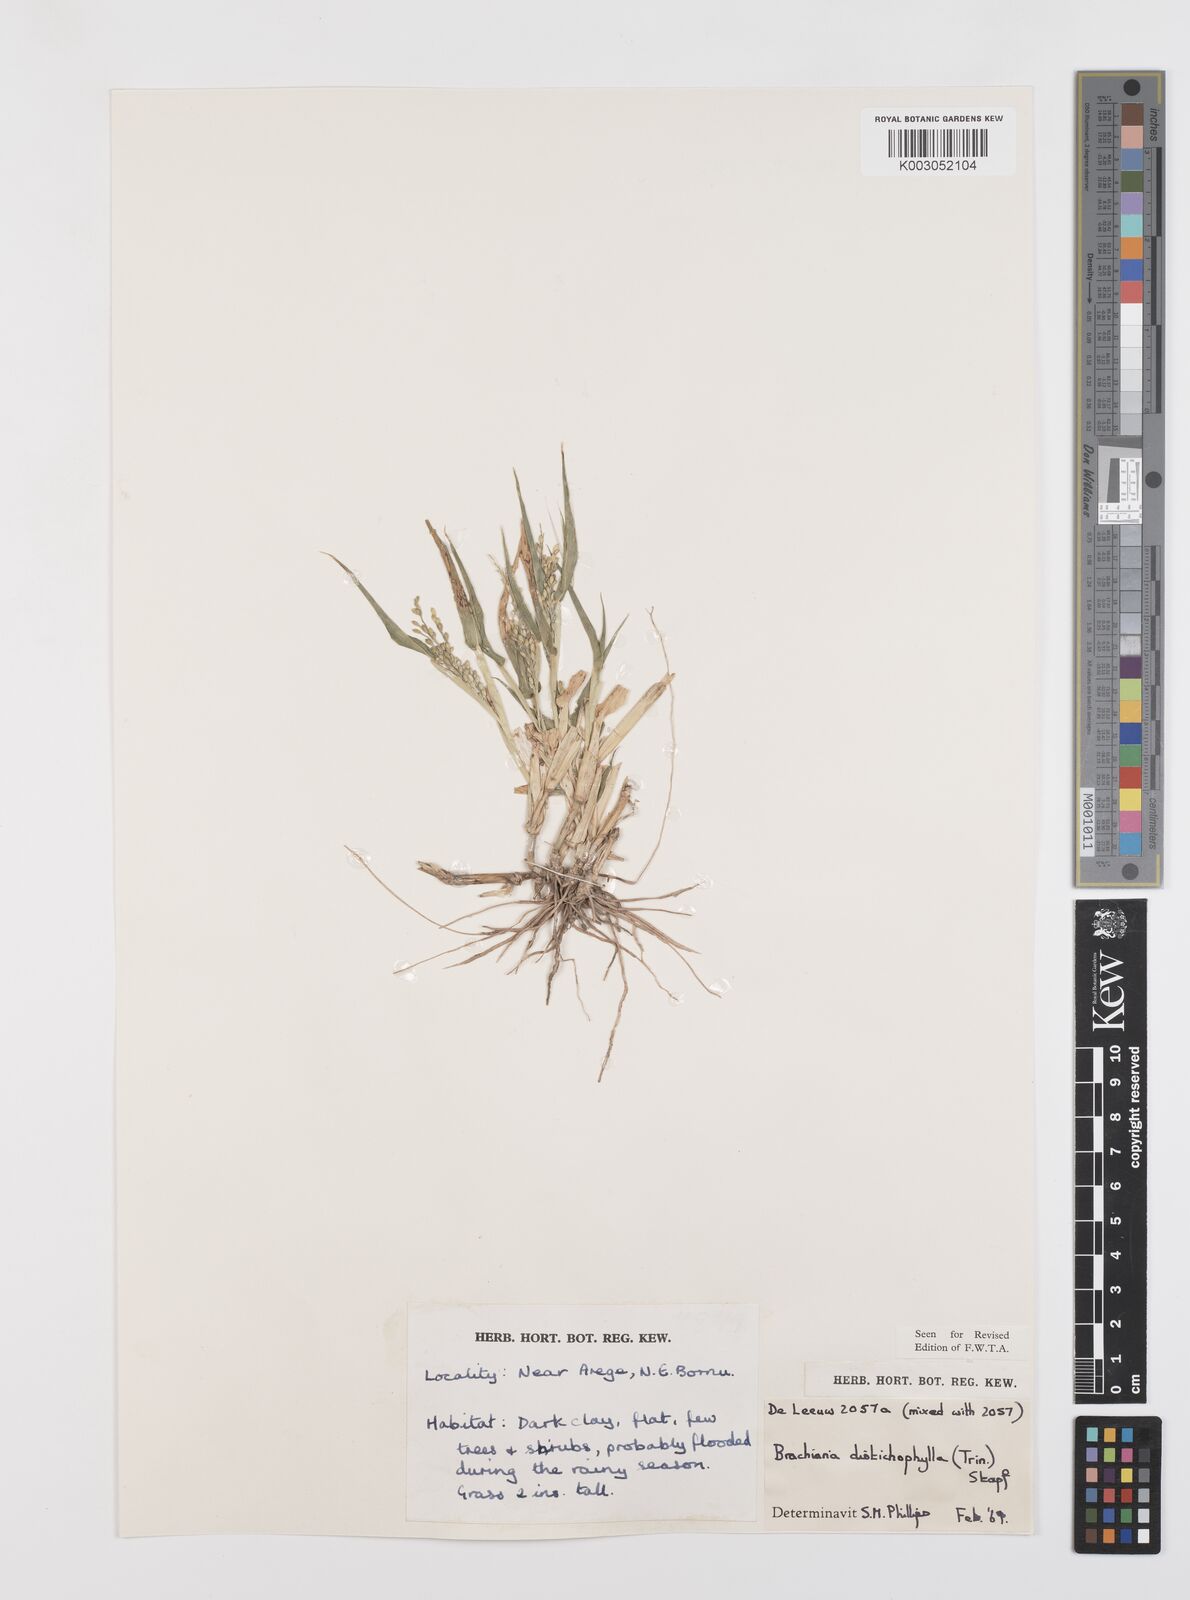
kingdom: Plantae
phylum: Tracheophyta
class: Liliopsida
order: Poales
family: Poaceae
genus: Urochloa
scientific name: Urochloa villosa
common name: Hairy signalgrass
